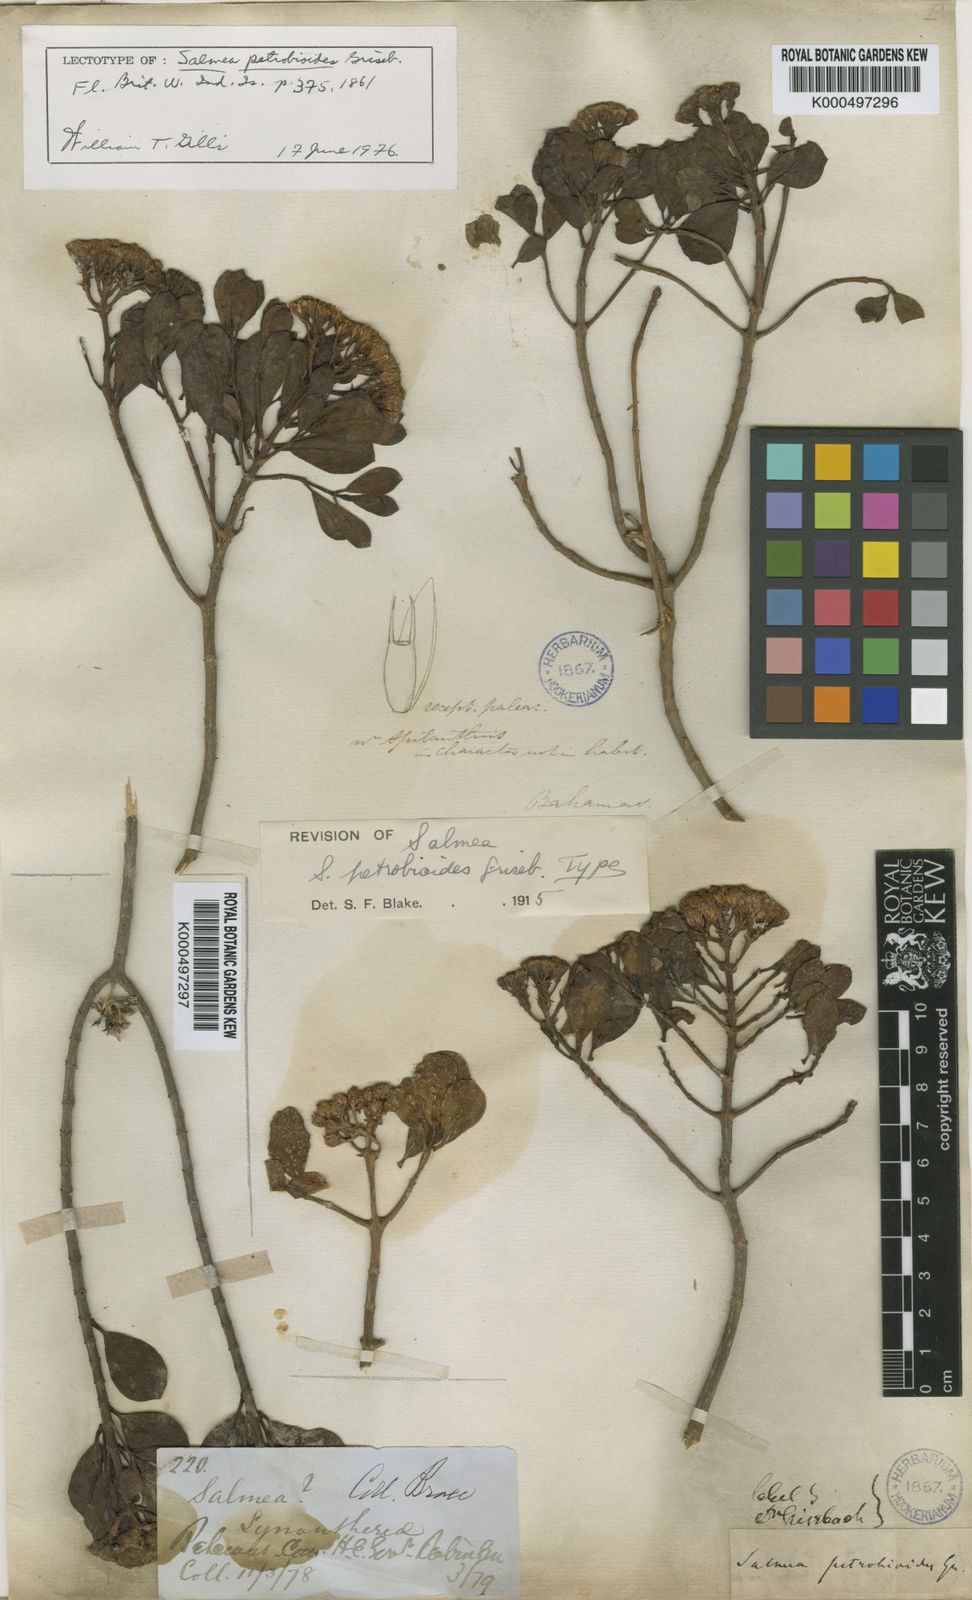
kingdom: Plantae
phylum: Tracheophyta
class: Magnoliopsida
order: Asterales
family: Asteraceae
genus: Salmea
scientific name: Salmea petrobioides
